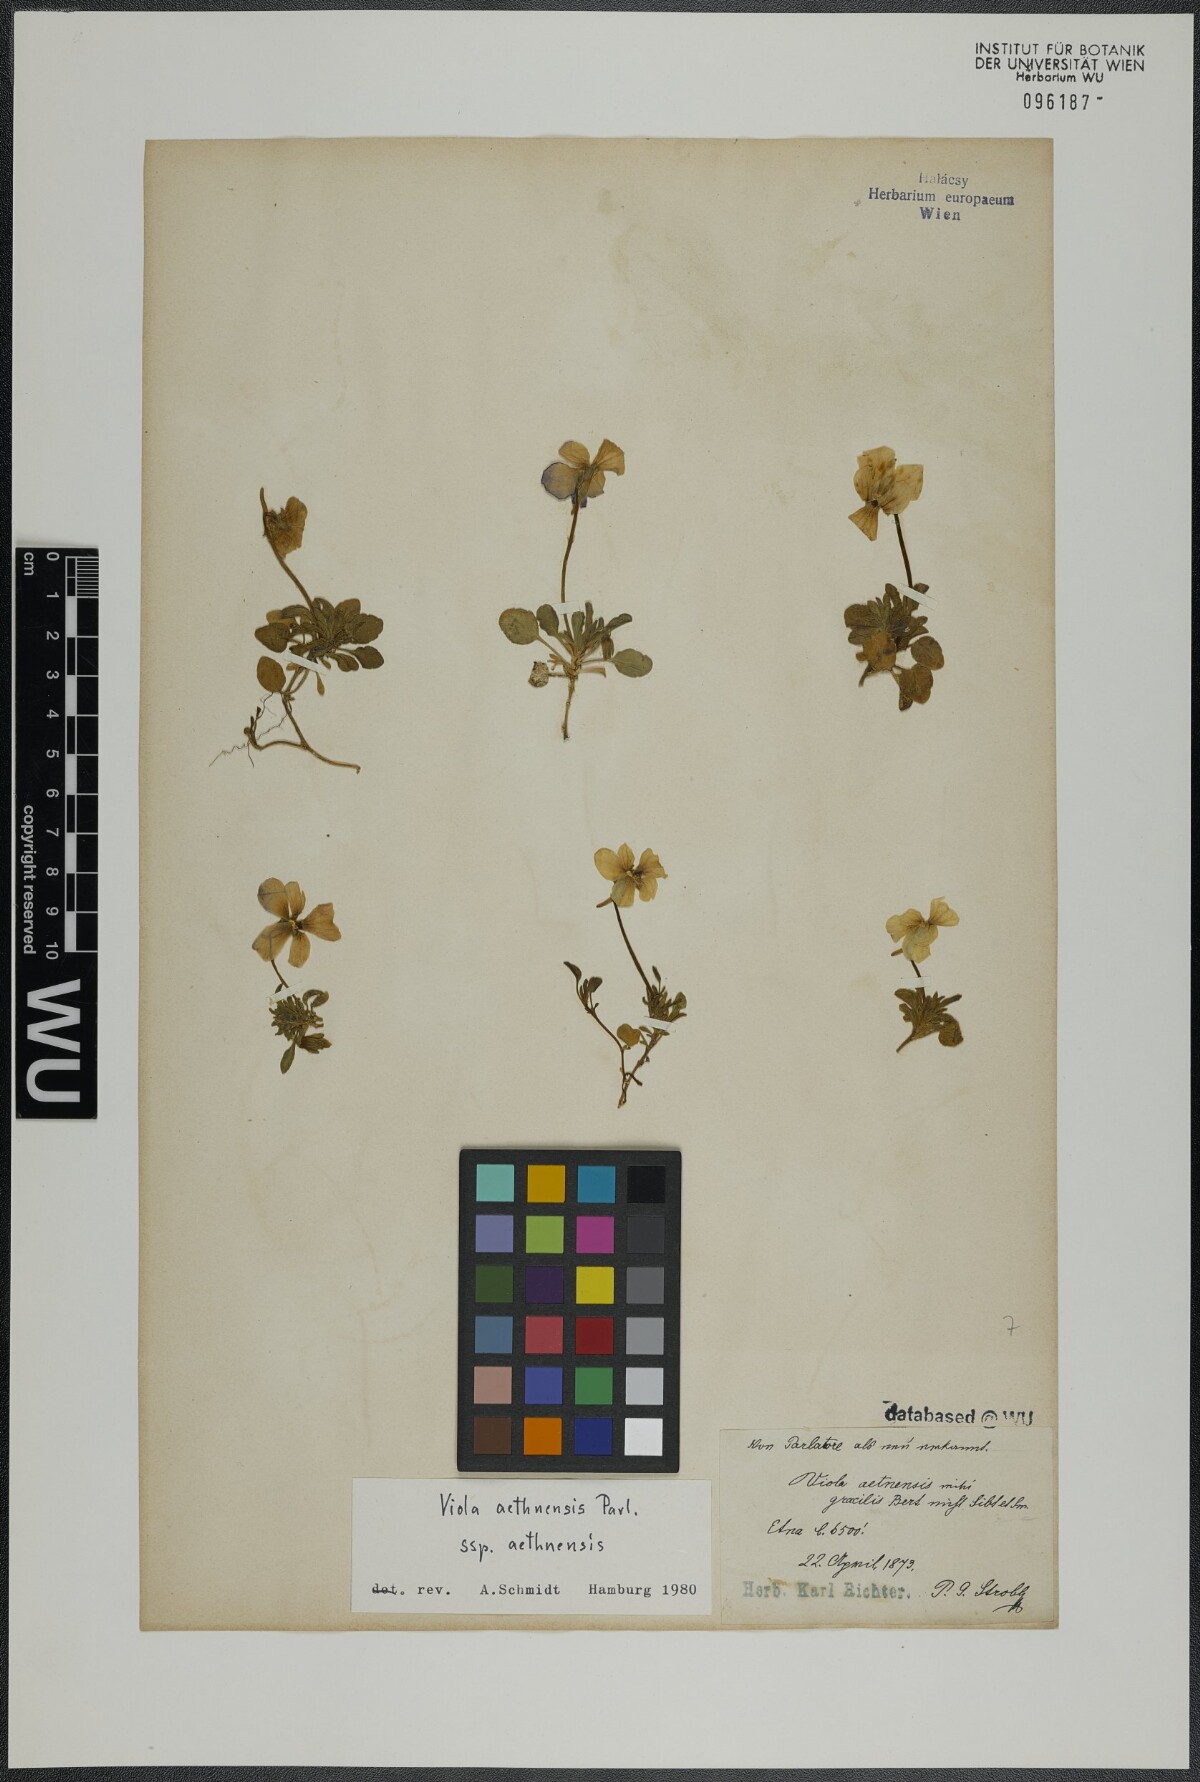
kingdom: Plantae
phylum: Tracheophyta
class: Magnoliopsida
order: Malpighiales
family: Violaceae
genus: Viola
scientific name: Viola aethnensis
